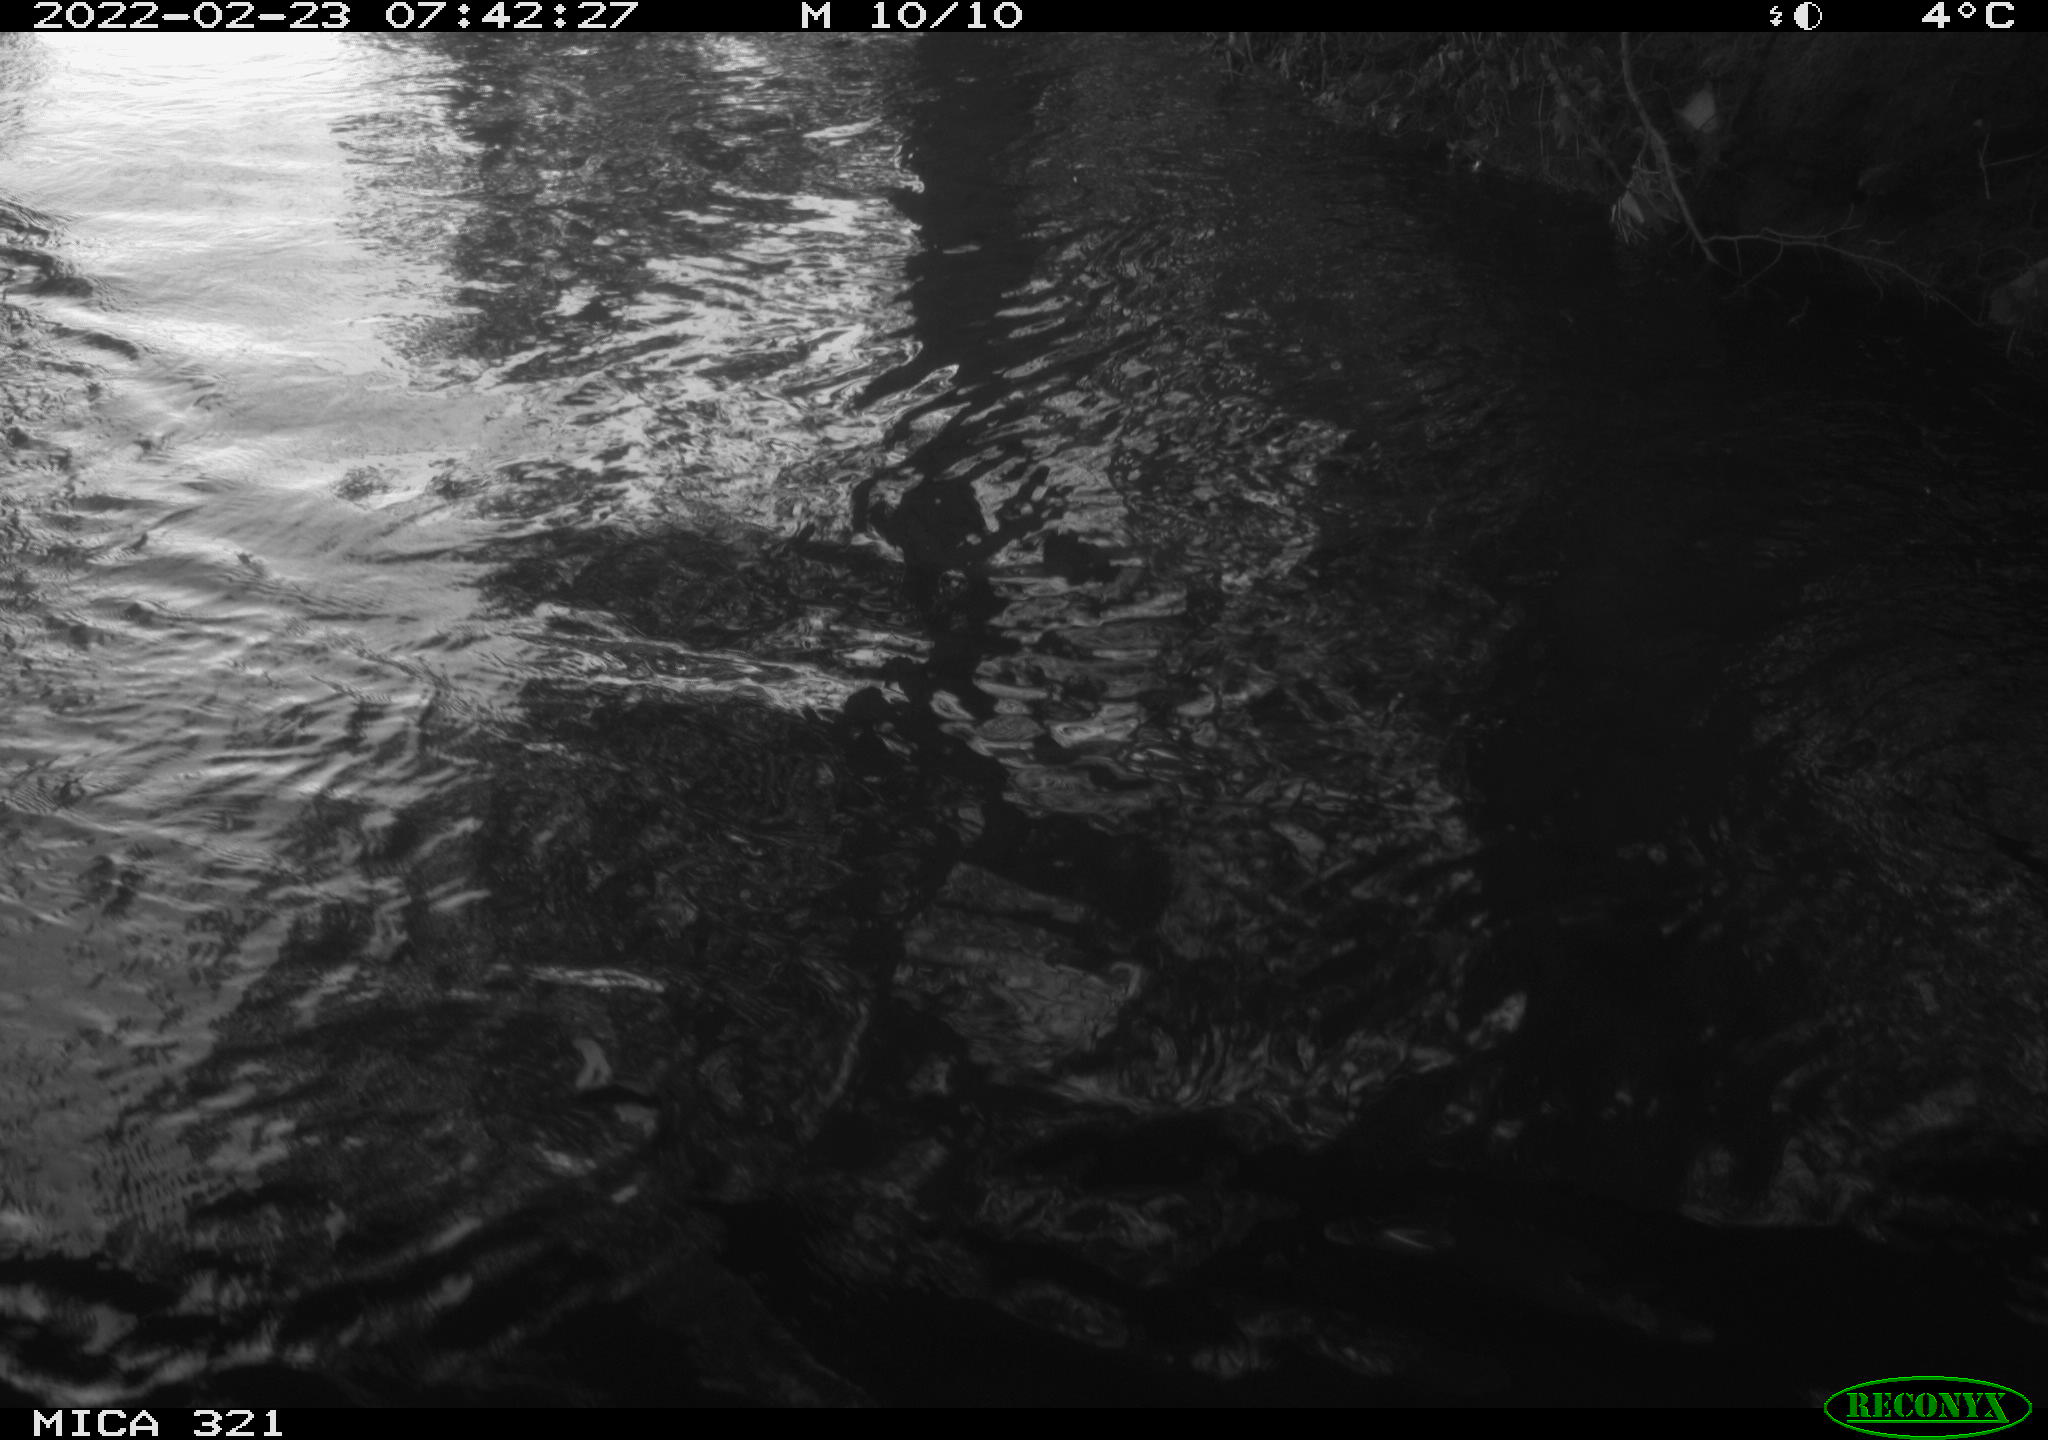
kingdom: Animalia
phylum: Chordata
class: Aves
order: Anseriformes
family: Anatidae
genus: Anas
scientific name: Anas platyrhynchos
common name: Mallard
